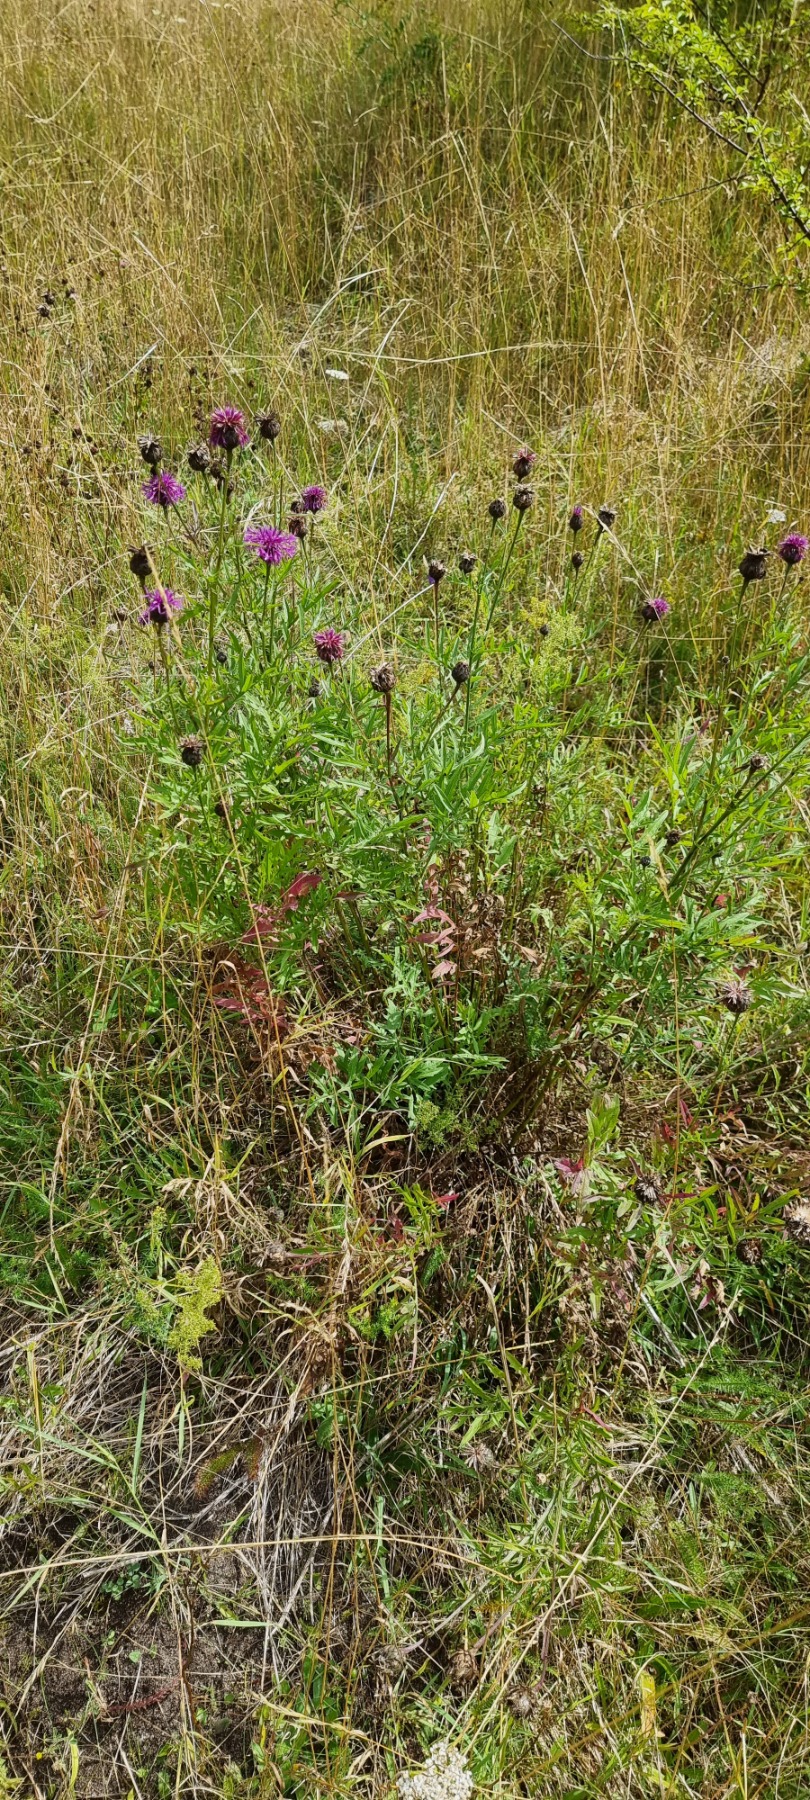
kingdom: Plantae
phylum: Tracheophyta
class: Magnoliopsida
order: Asterales
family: Asteraceae
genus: Centaurea
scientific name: Centaurea scabiosa
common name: Stor knopurt
